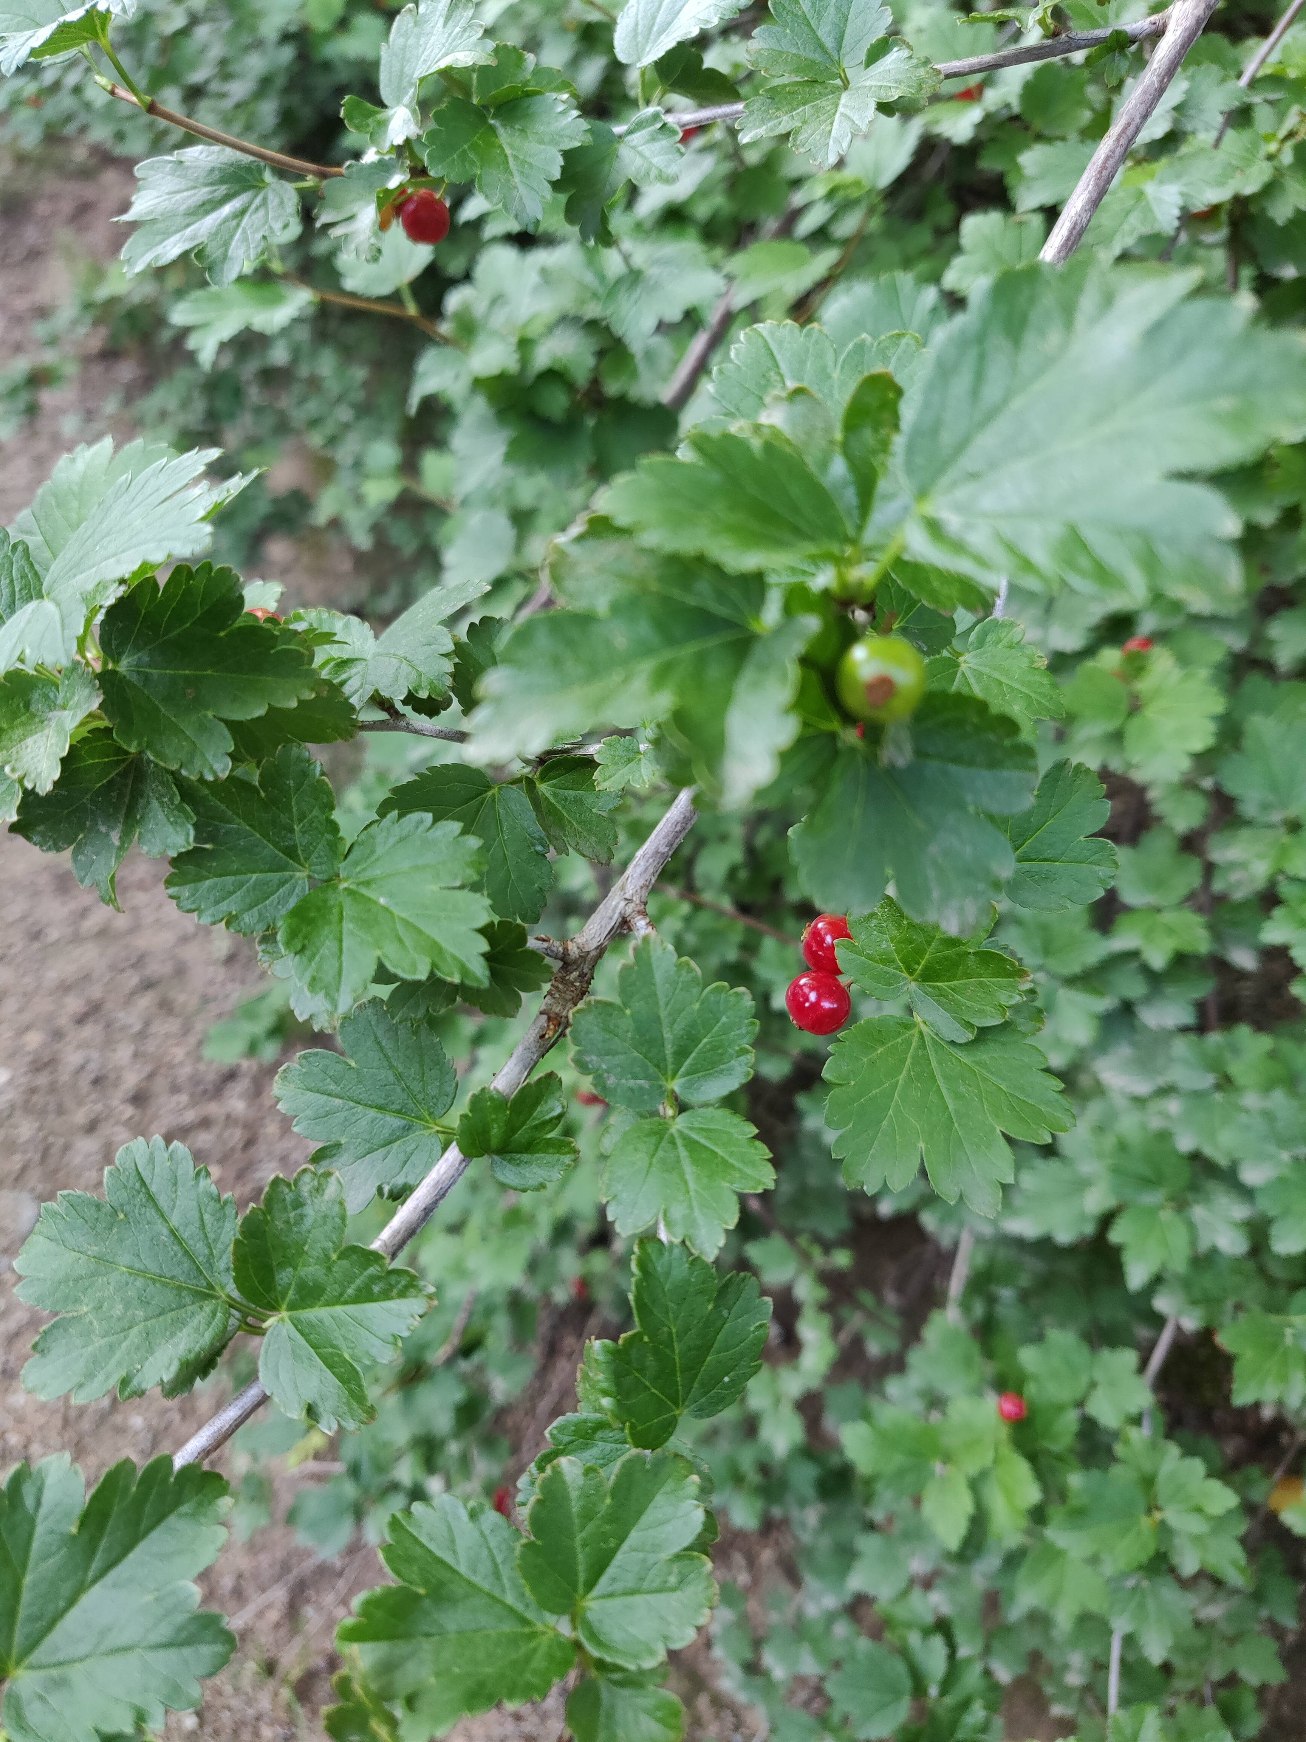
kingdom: Plantae
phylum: Tracheophyta
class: Magnoliopsida
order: Saxifragales
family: Grossulariaceae
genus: Ribes
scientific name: Ribes alpinum
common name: Fjeld-ribs
